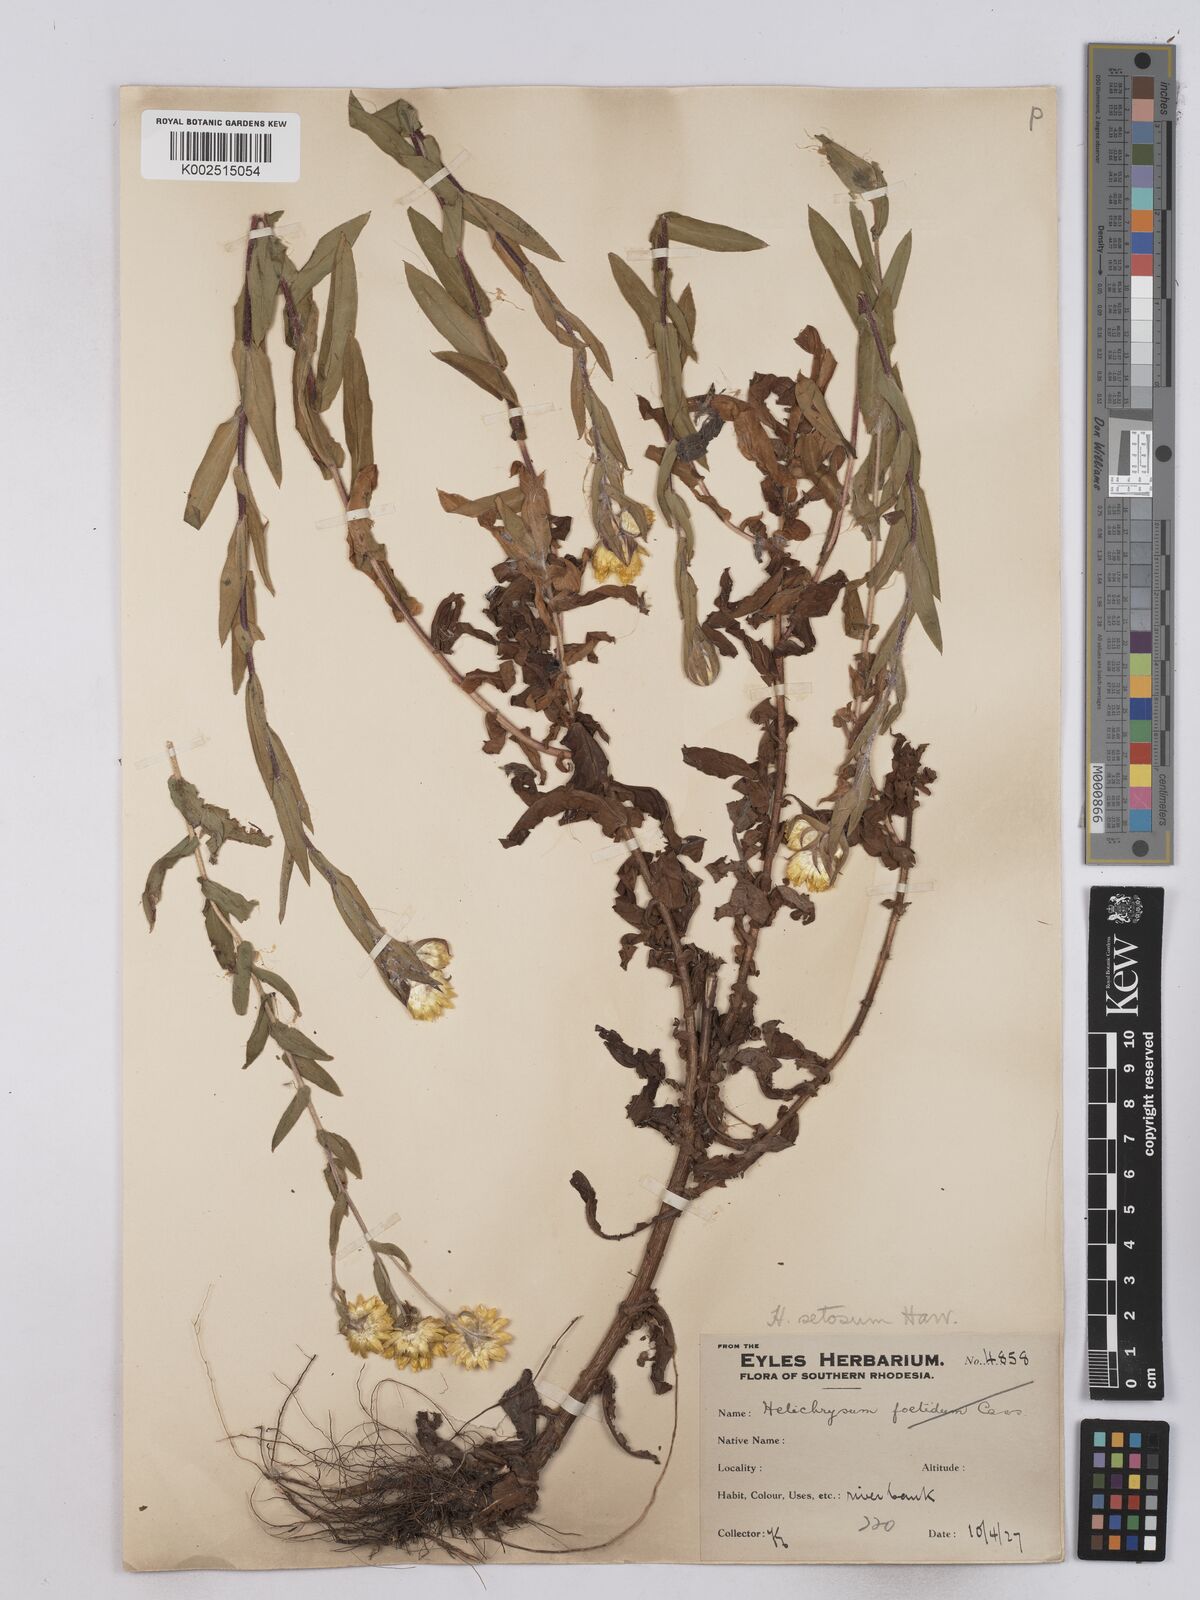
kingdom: Plantae
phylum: Tracheophyta
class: Magnoliopsida
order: Asterales
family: Asteraceae
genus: Helichrysum
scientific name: Helichrysum setosum
